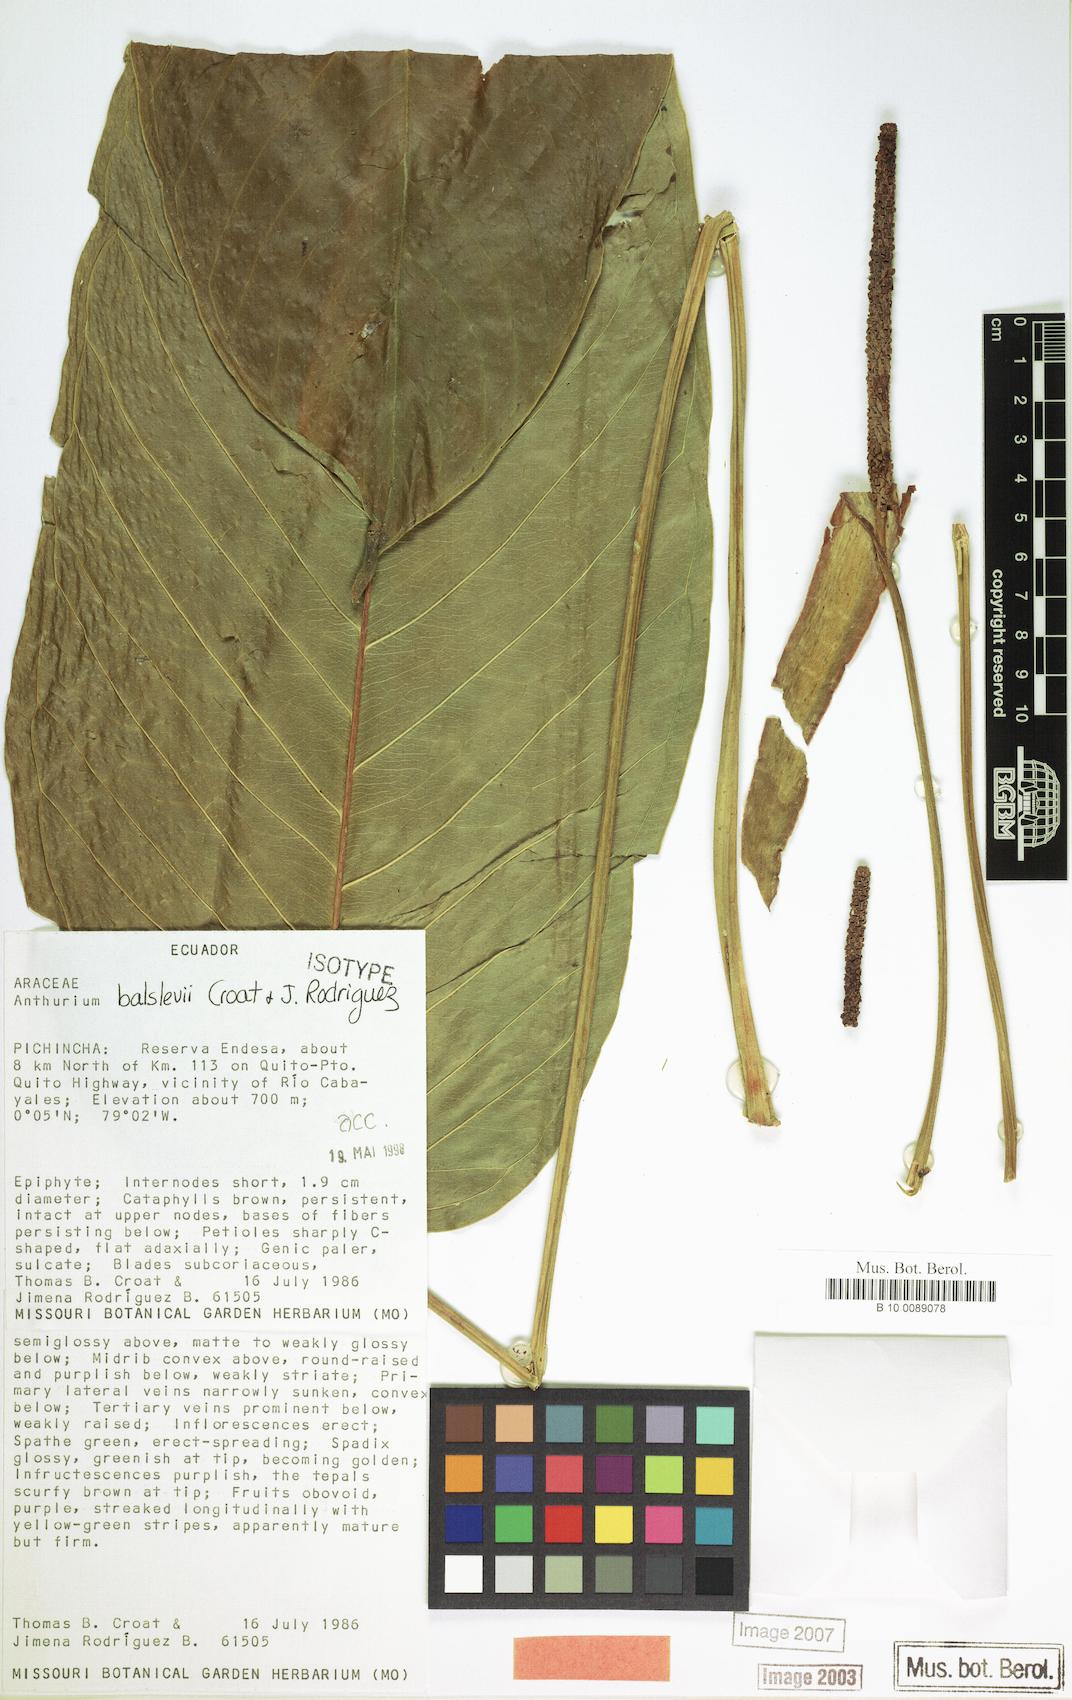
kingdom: Plantae
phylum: Tracheophyta
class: Liliopsida
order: Alismatales
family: Araceae
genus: Anthurium
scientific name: Anthurium balslevii
